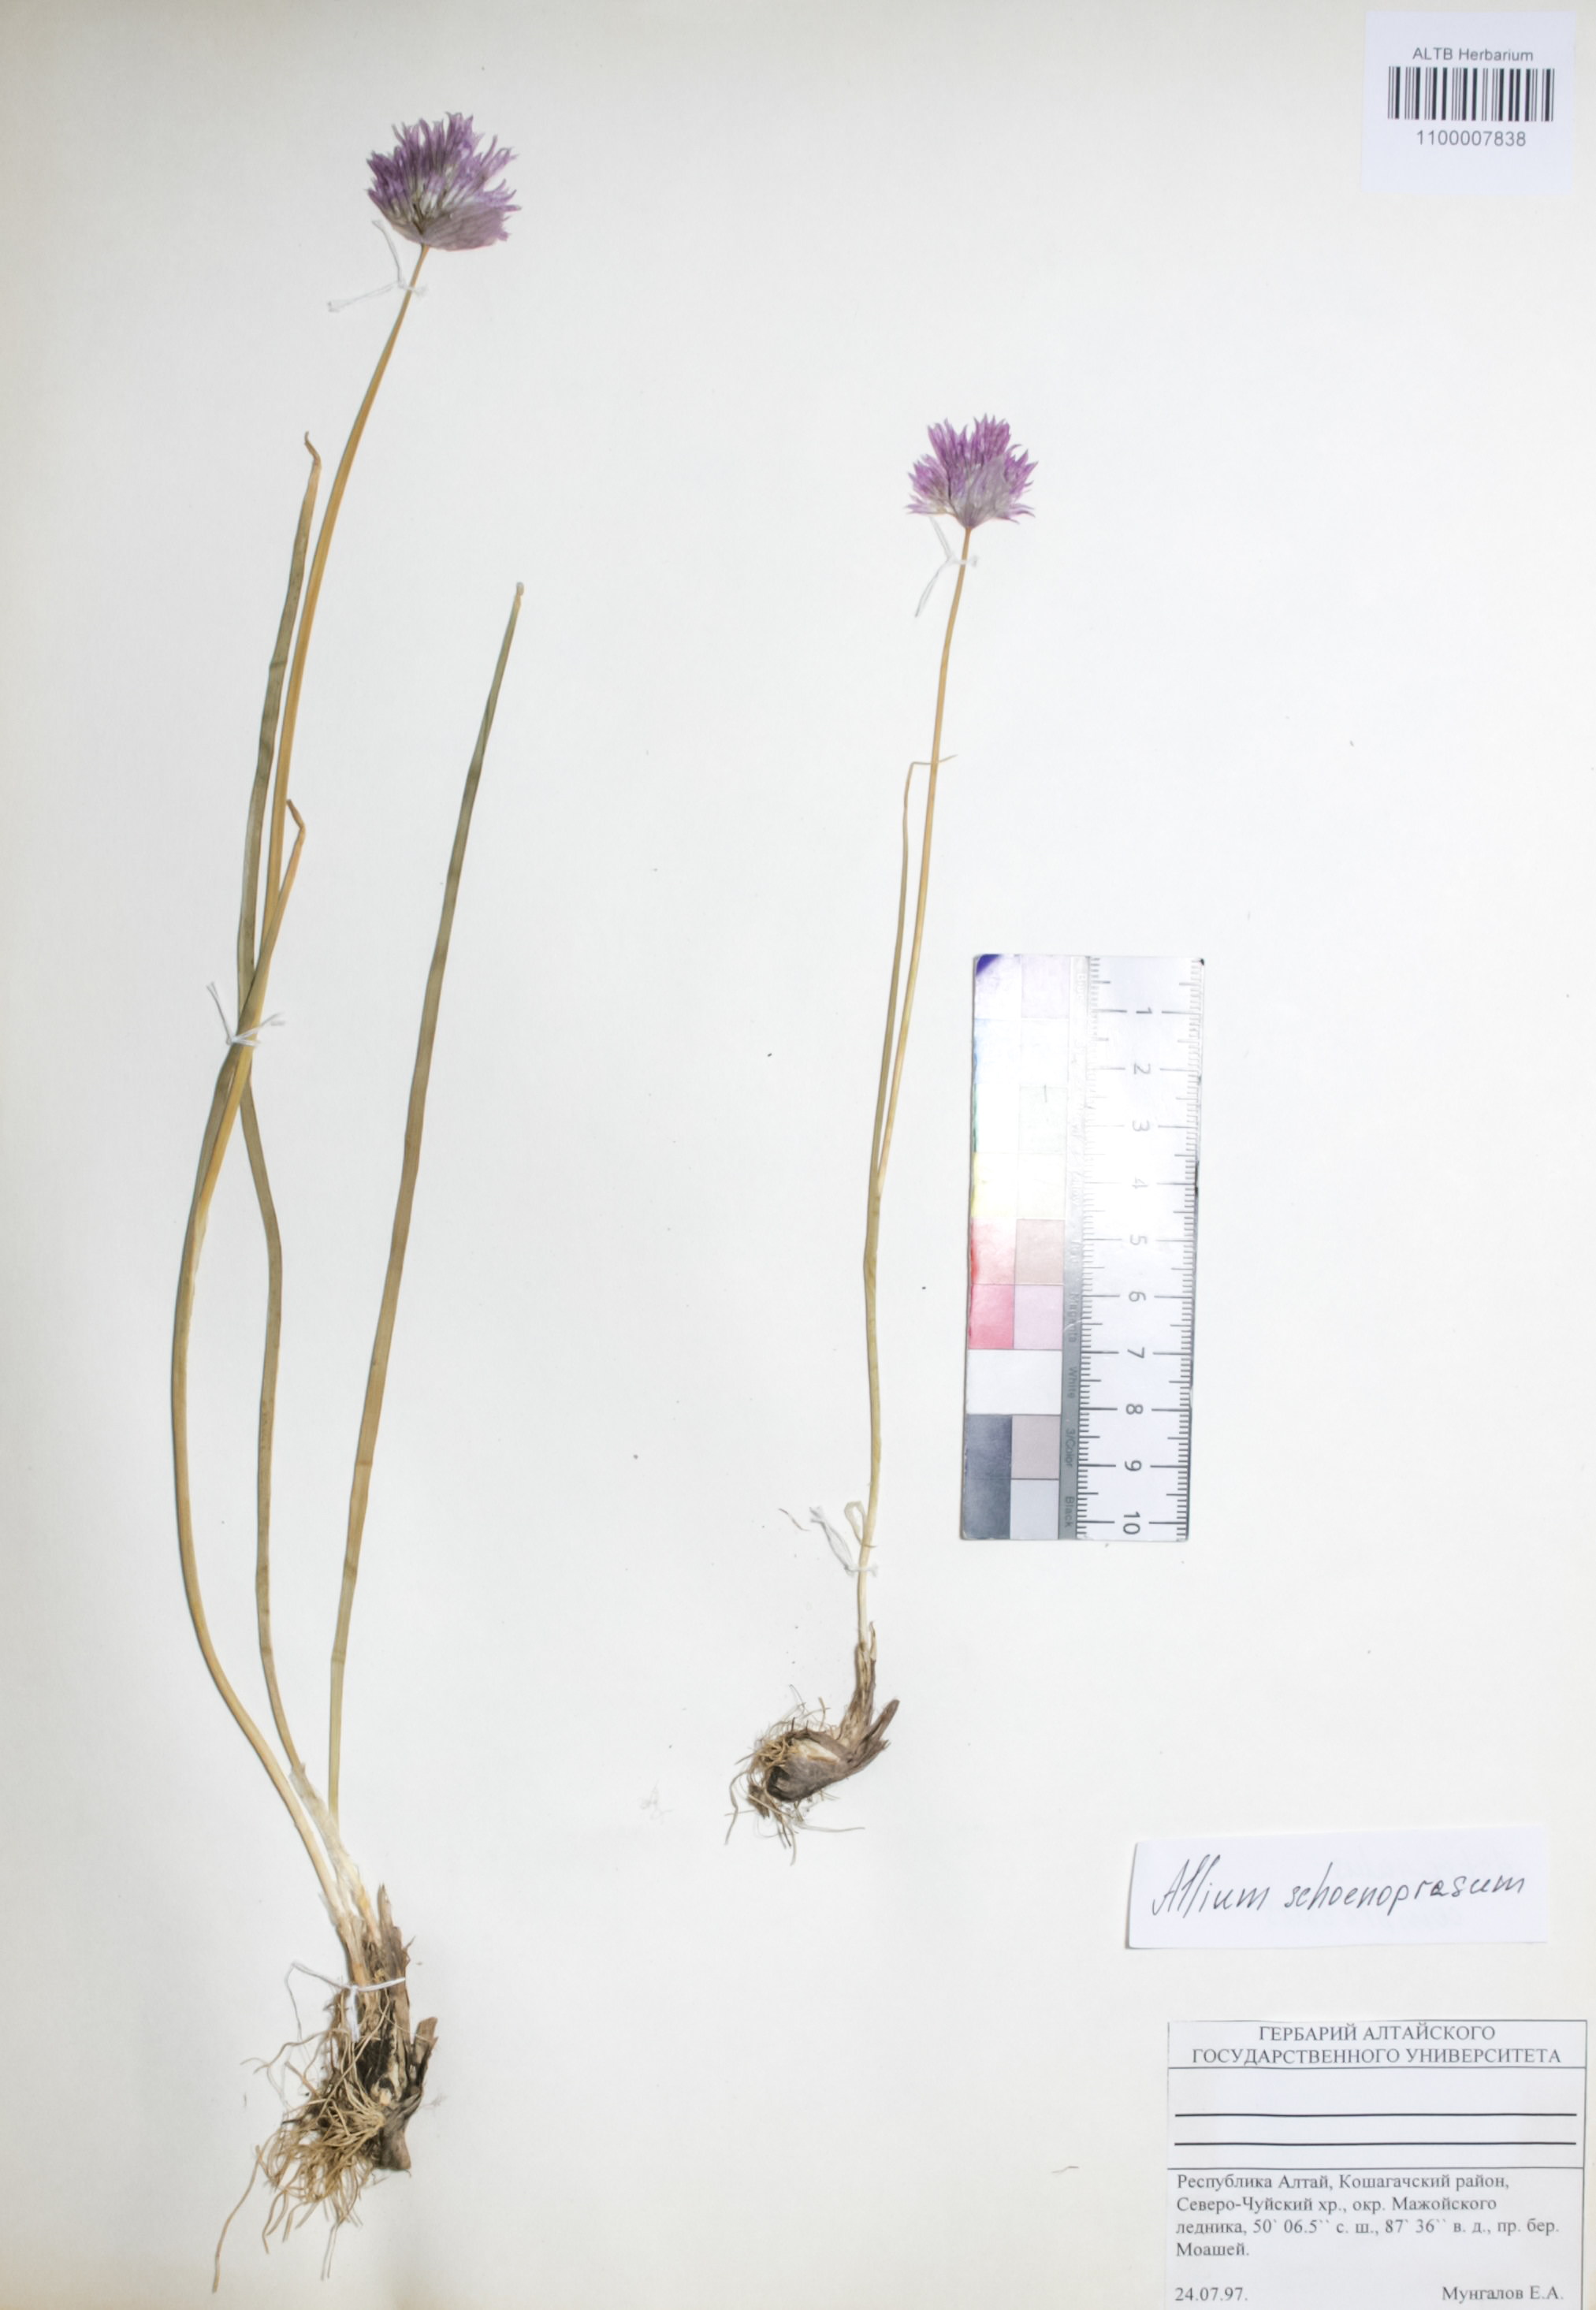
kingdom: Plantae
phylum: Tracheophyta
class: Liliopsida
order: Asparagales
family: Amaryllidaceae
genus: Allium
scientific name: Allium schoenoprasum
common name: Chives
